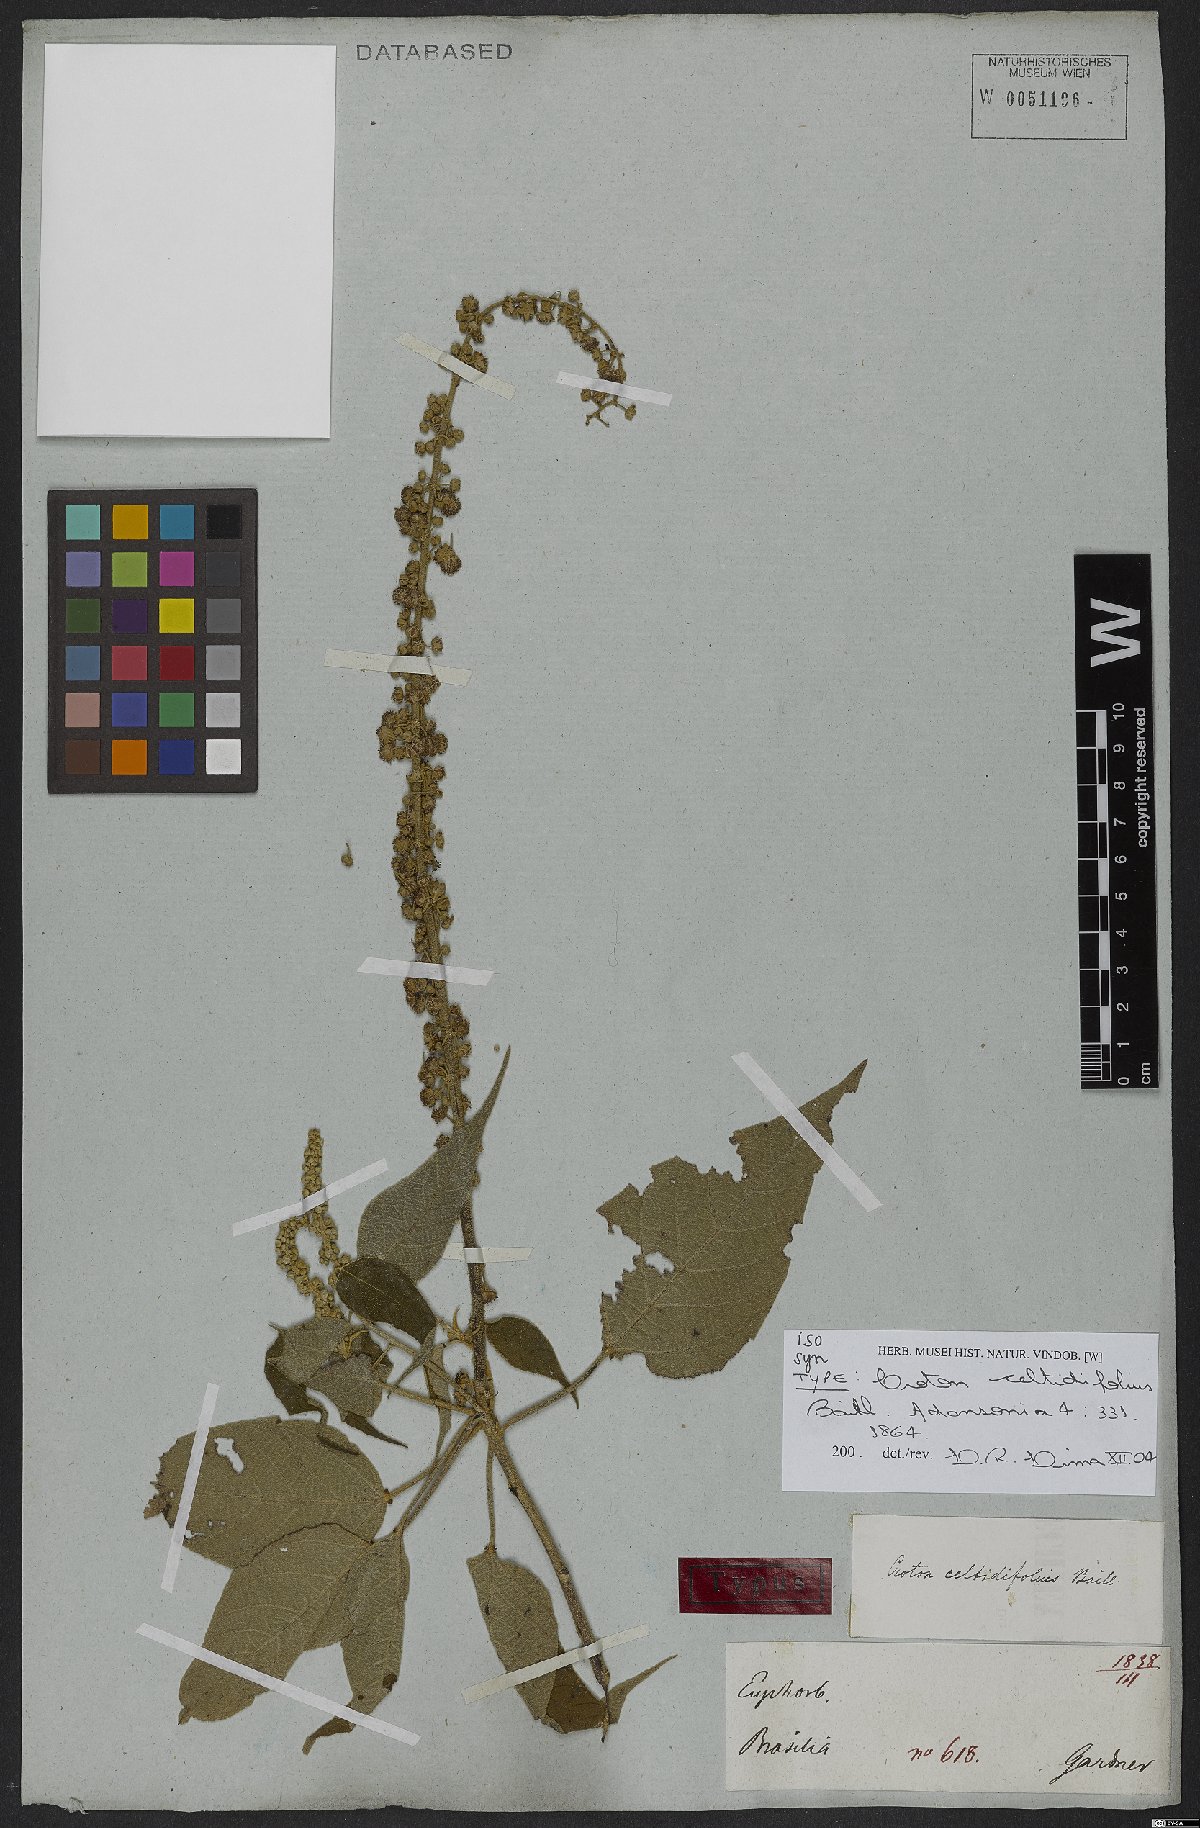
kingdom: Plantae
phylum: Tracheophyta
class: Magnoliopsida
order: Malpighiales
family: Euphorbiaceae
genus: Croton
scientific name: Croton celtidifolius
